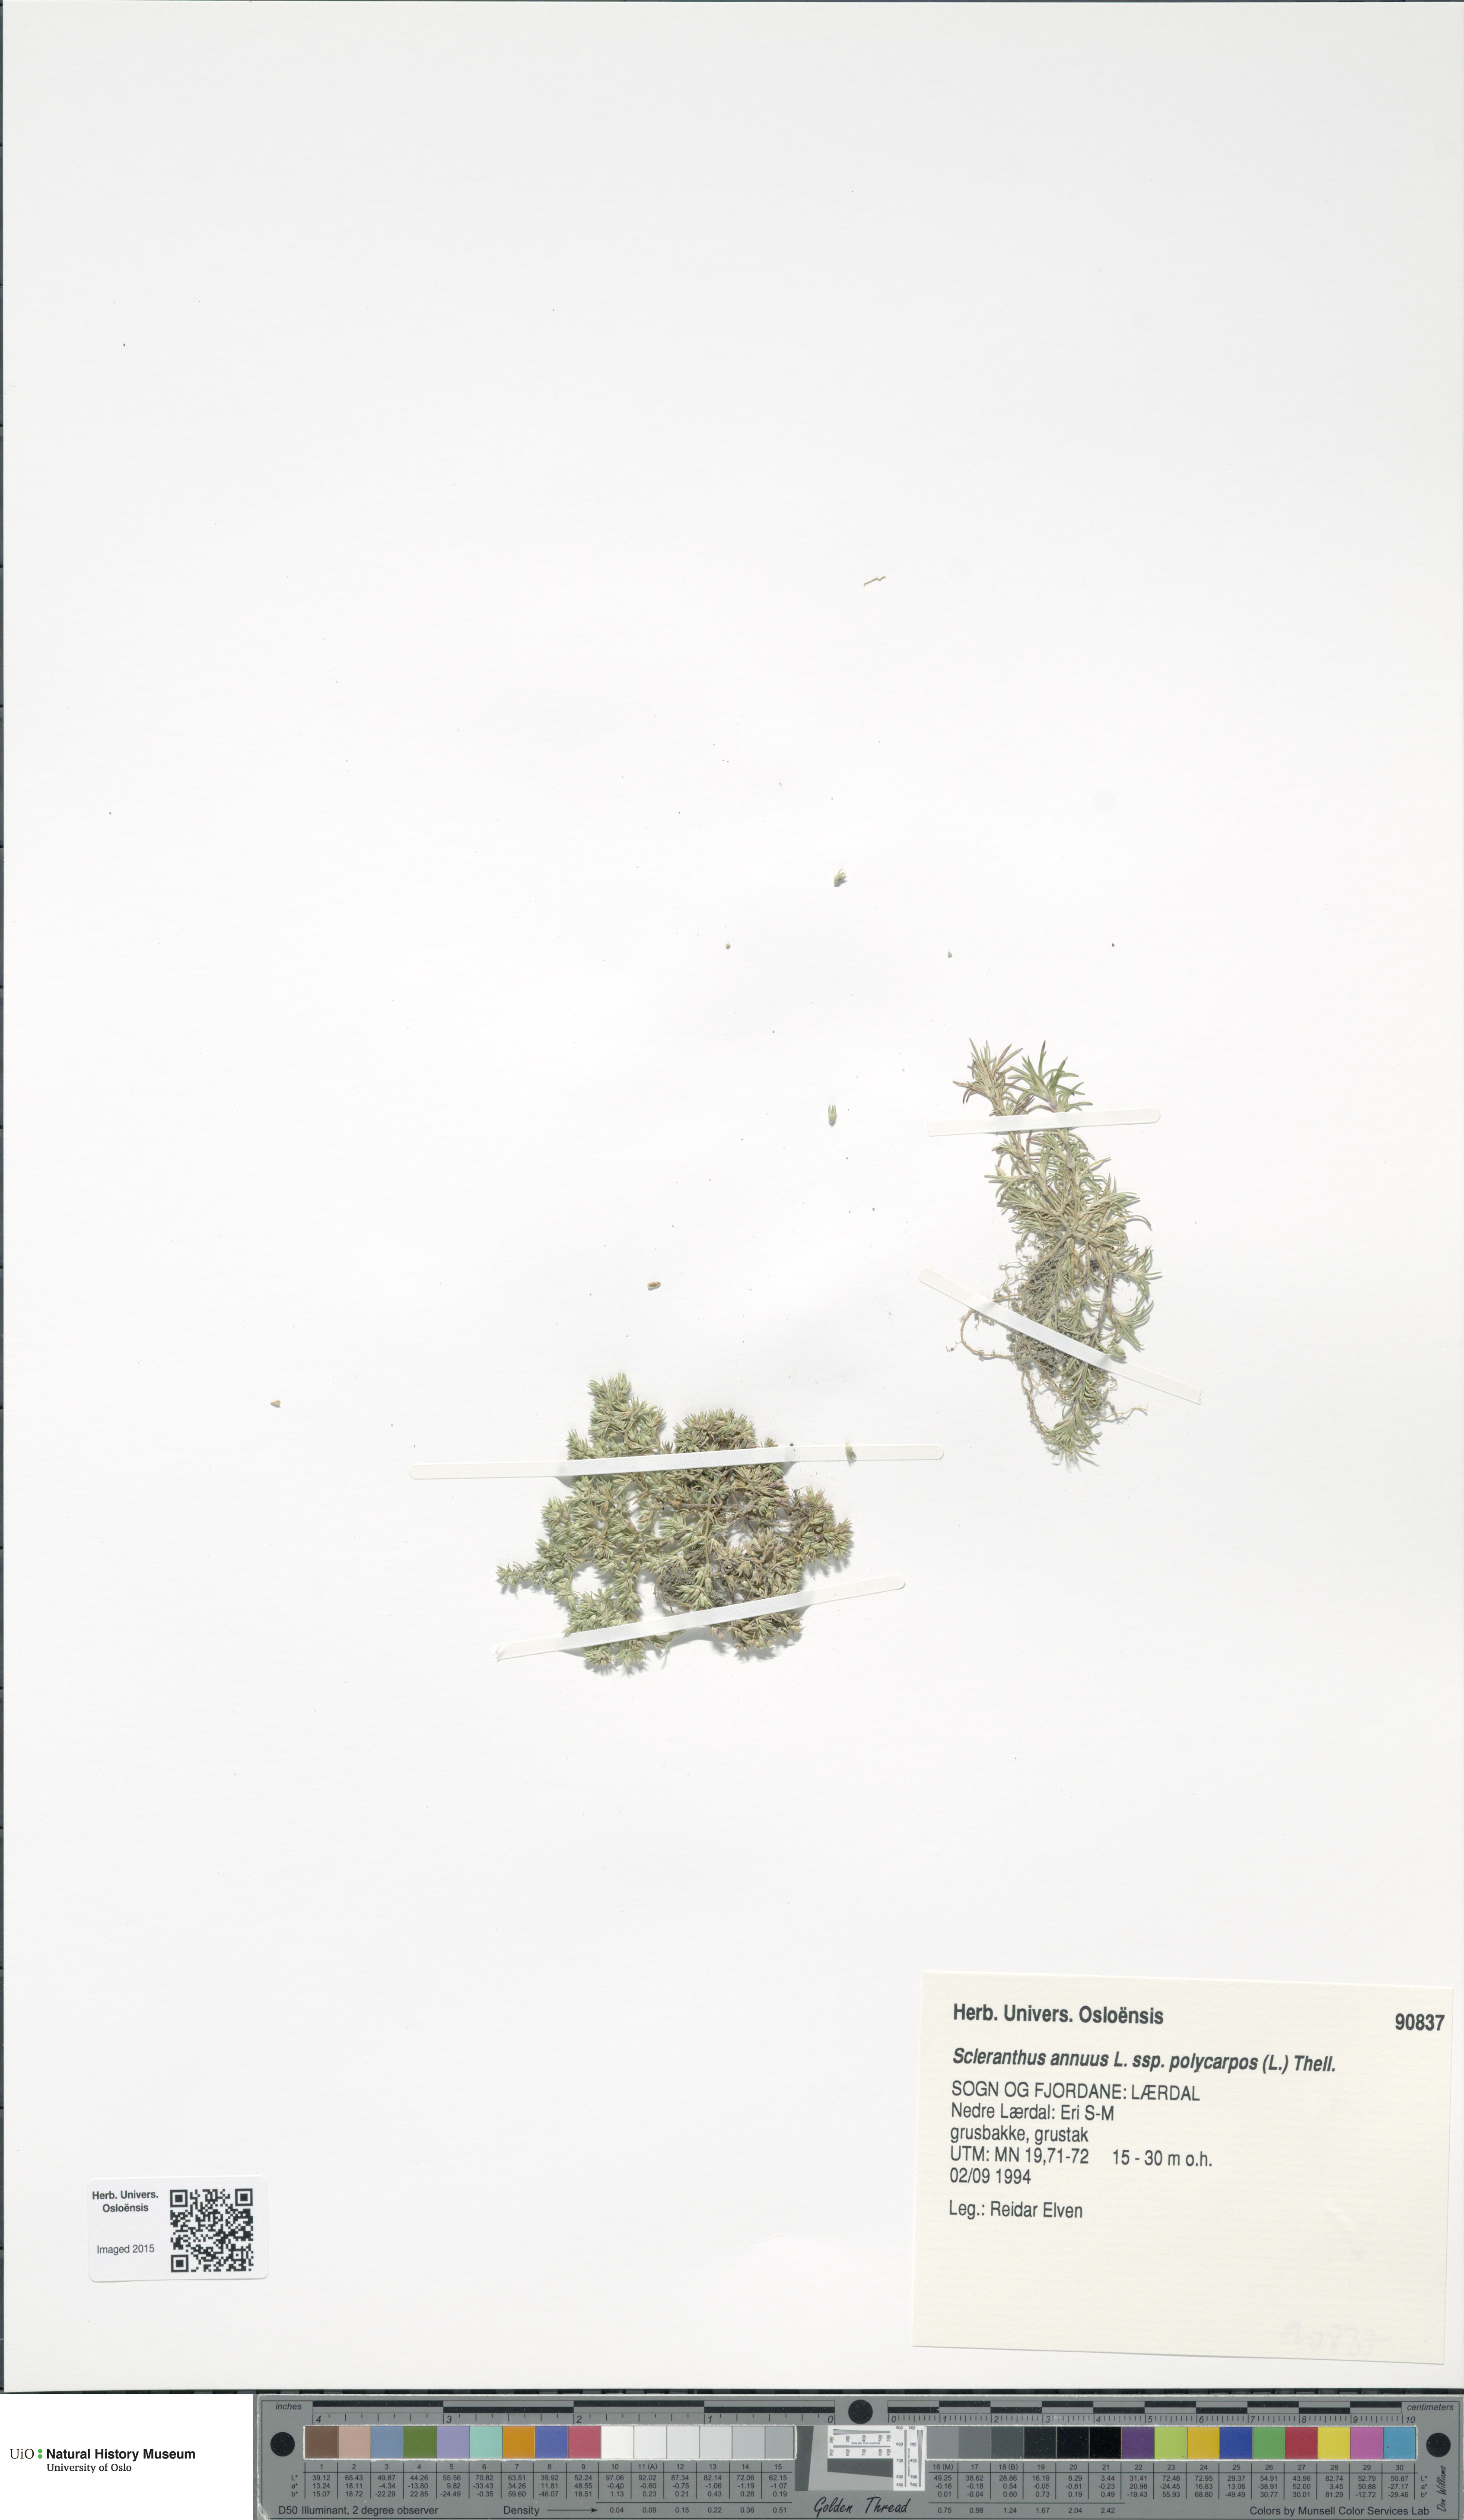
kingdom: Plantae
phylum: Tracheophyta
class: Magnoliopsida
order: Caryophyllales
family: Caryophyllaceae
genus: Scleranthus
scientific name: Scleranthus annuus
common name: Annual knawel
